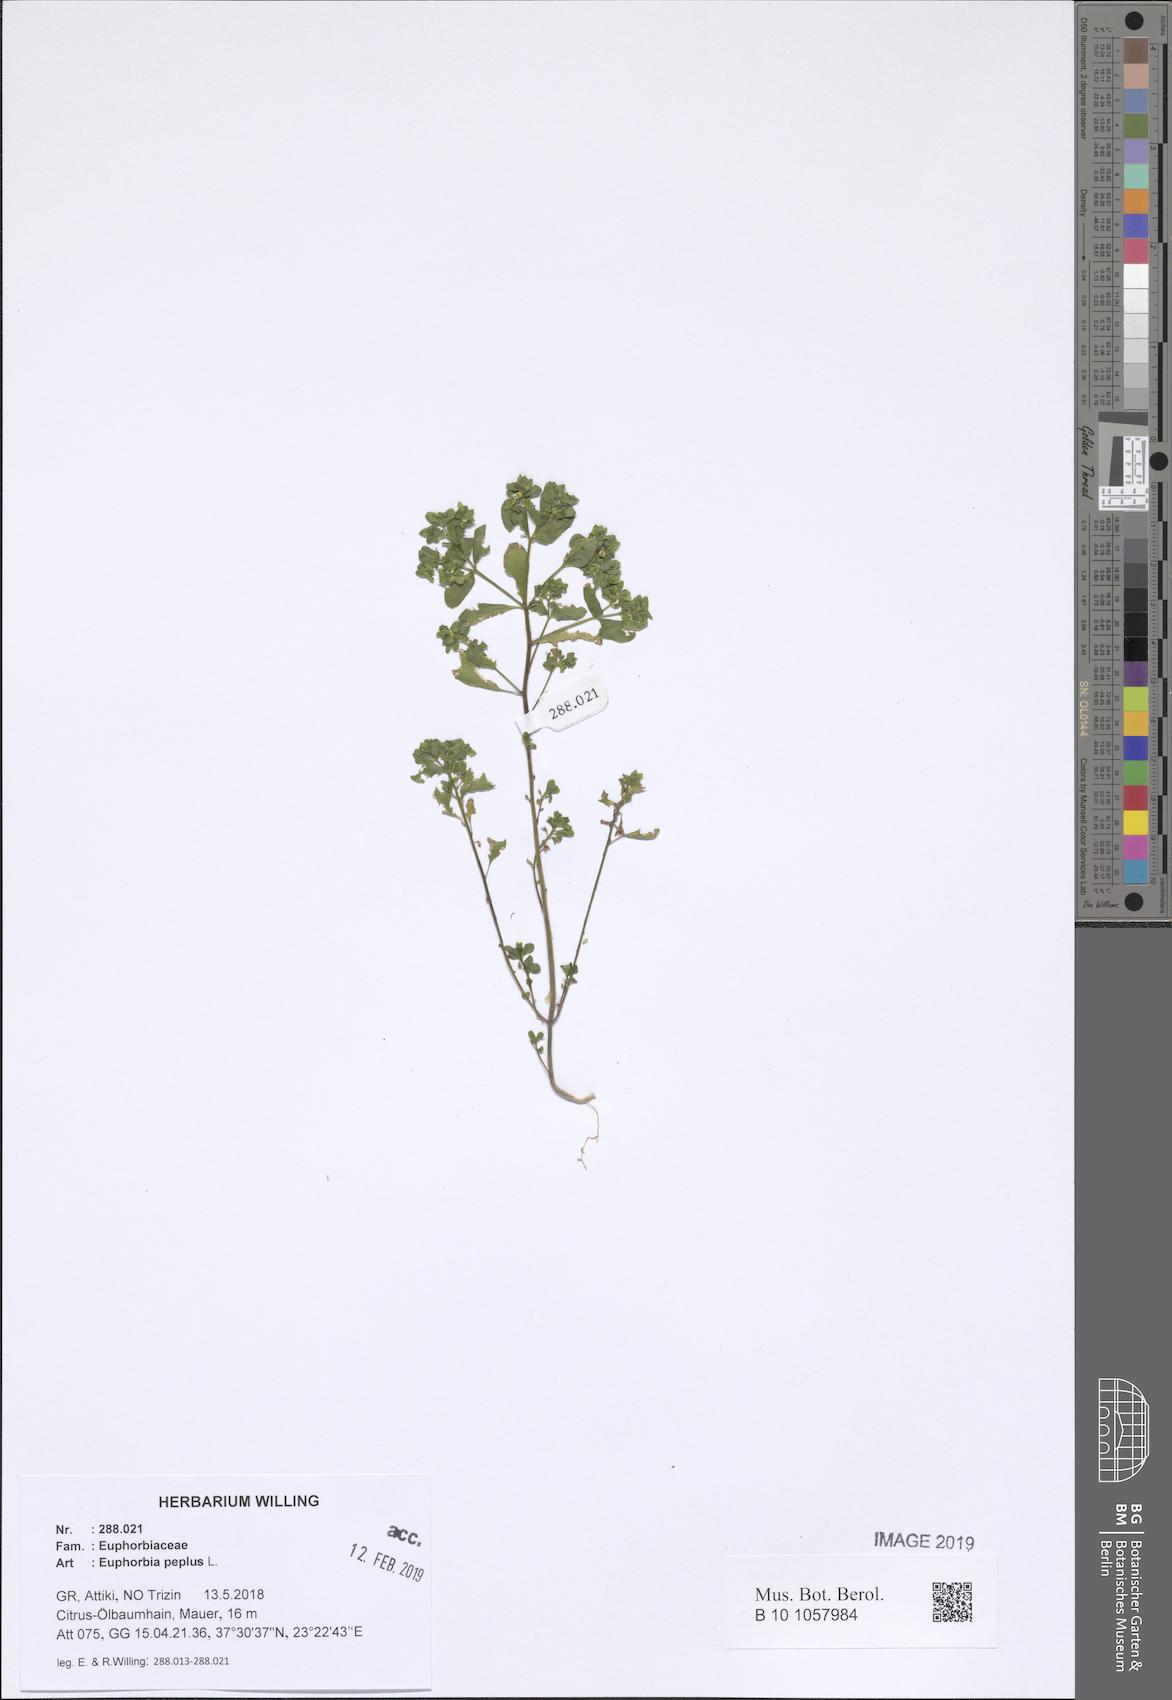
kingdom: Plantae
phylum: Tracheophyta
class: Magnoliopsida
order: Malpighiales
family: Euphorbiaceae
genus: Euphorbia
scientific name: Euphorbia peplus
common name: Petty spurge
